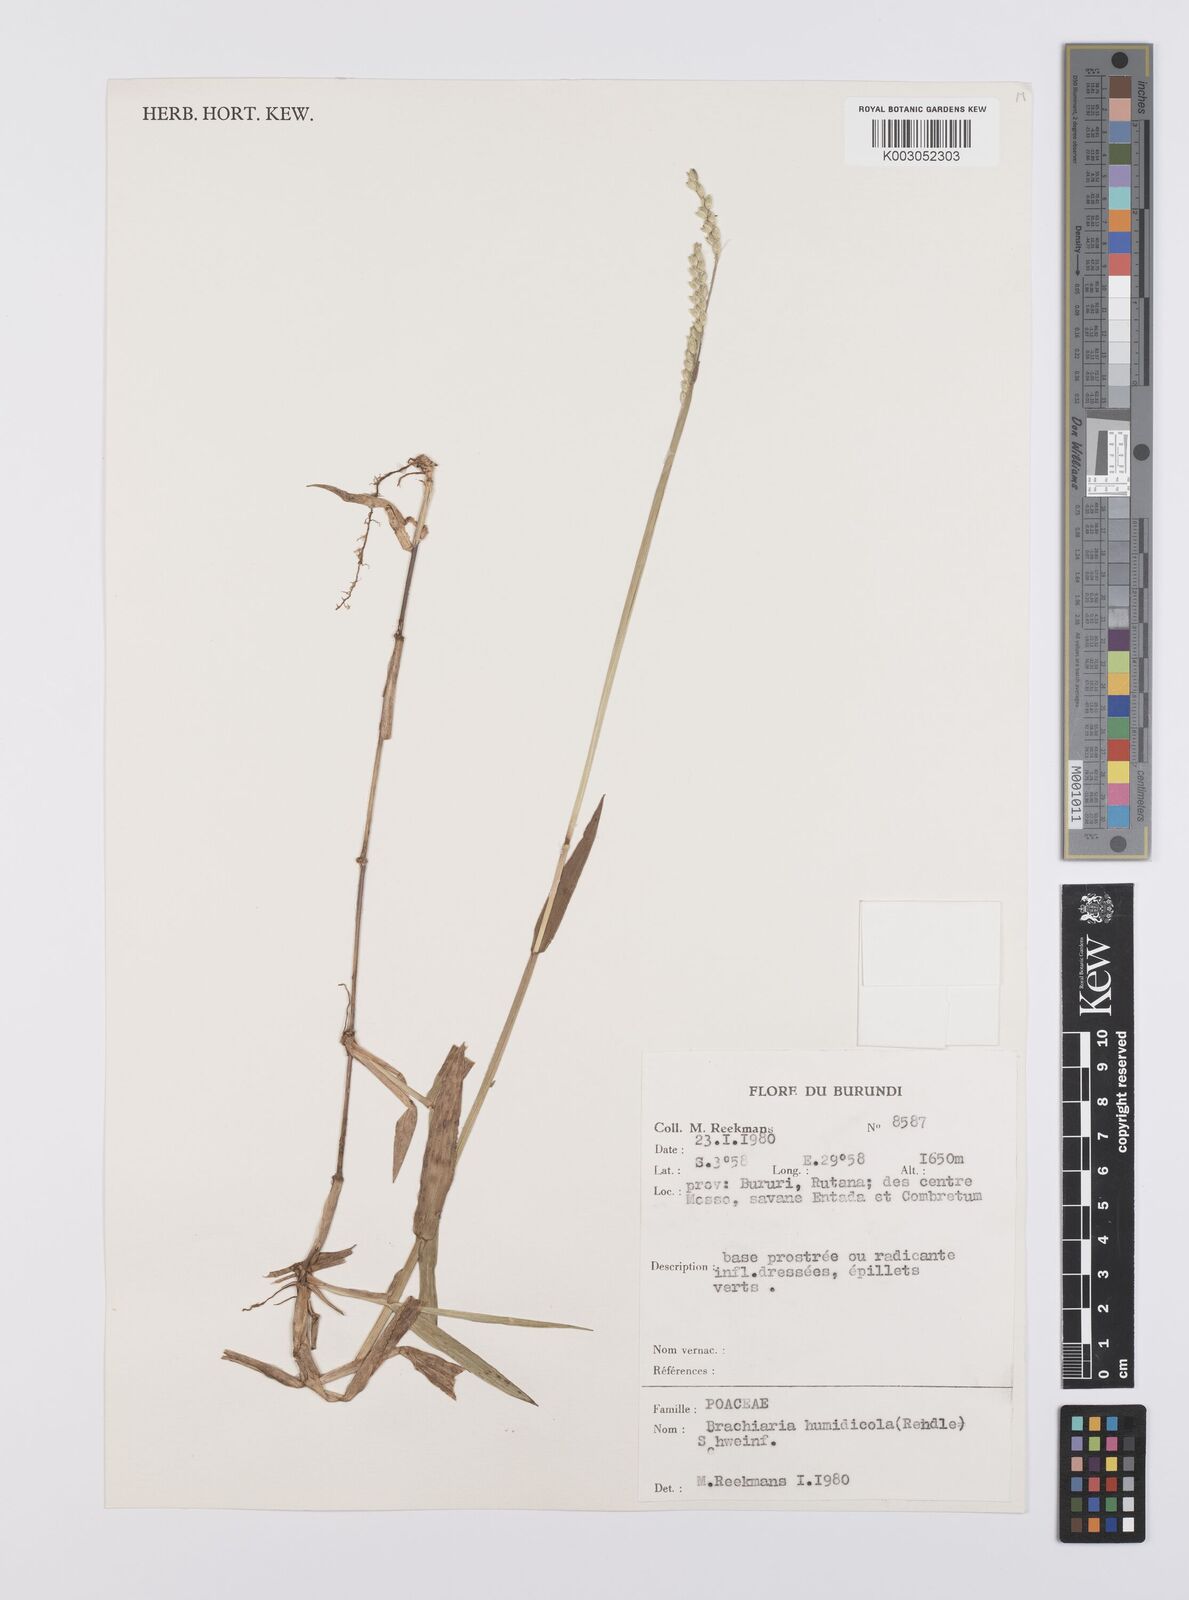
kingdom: Plantae
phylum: Tracheophyta
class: Liliopsida
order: Poales
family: Poaceae
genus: Urochloa
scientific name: Urochloa dictyoneura
